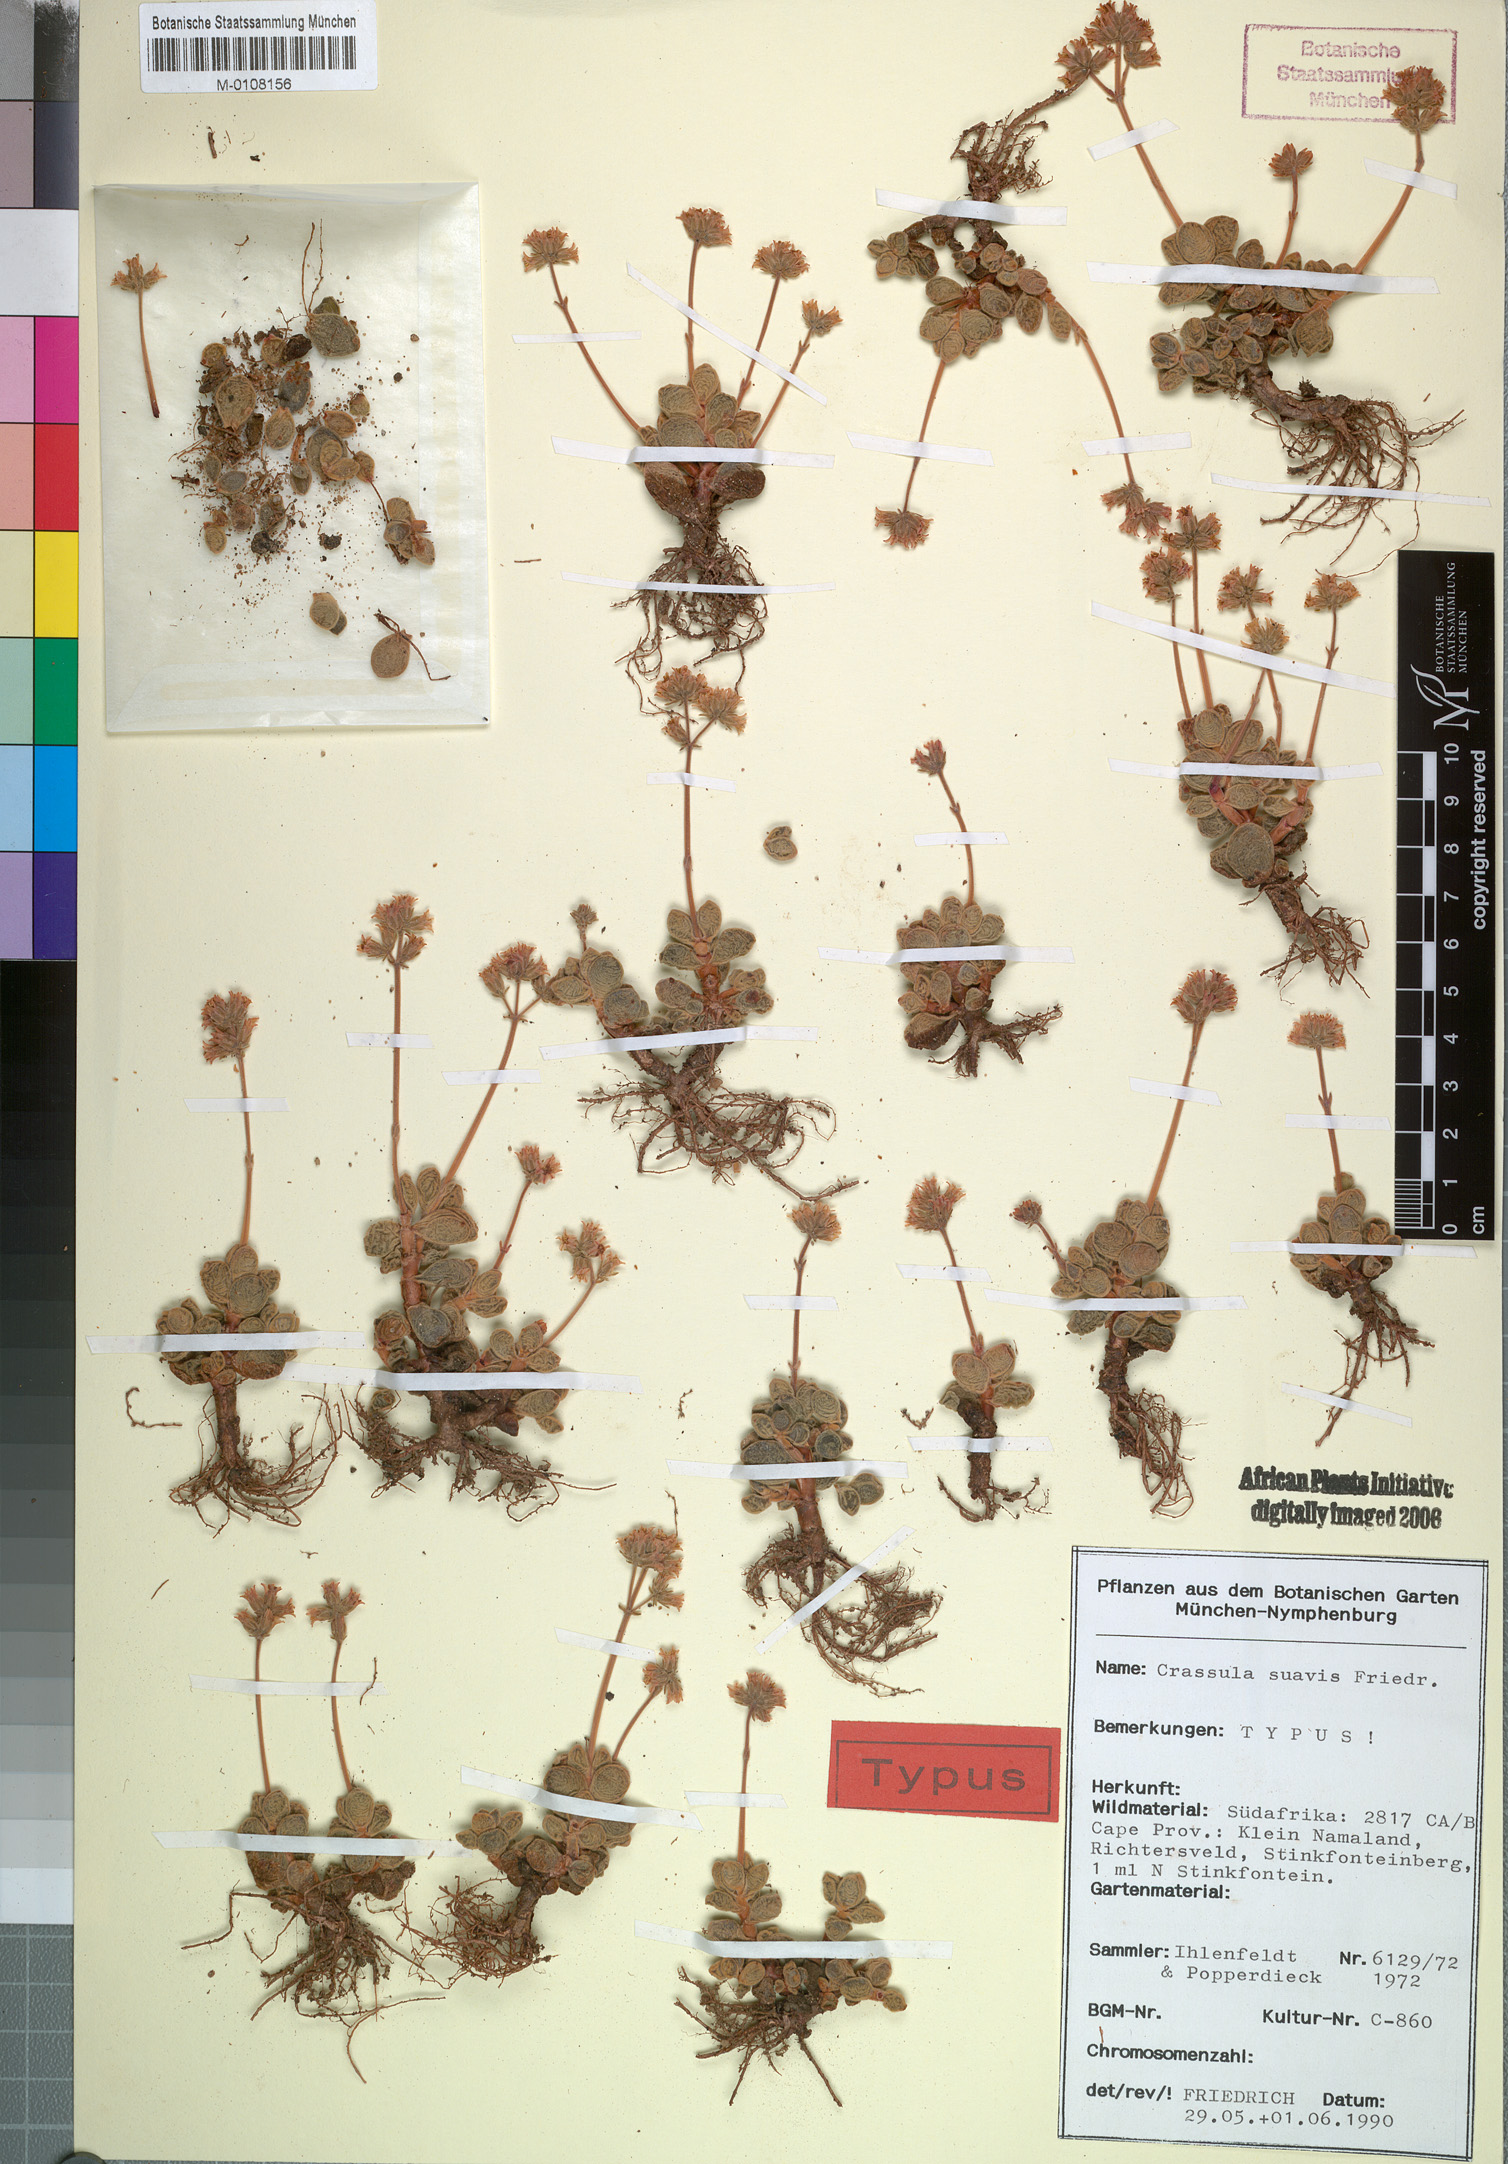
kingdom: Plantae
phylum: Tracheophyta
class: Magnoliopsida
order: Saxifragales
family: Crassulaceae
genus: Crassula
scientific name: Crassula sericea
